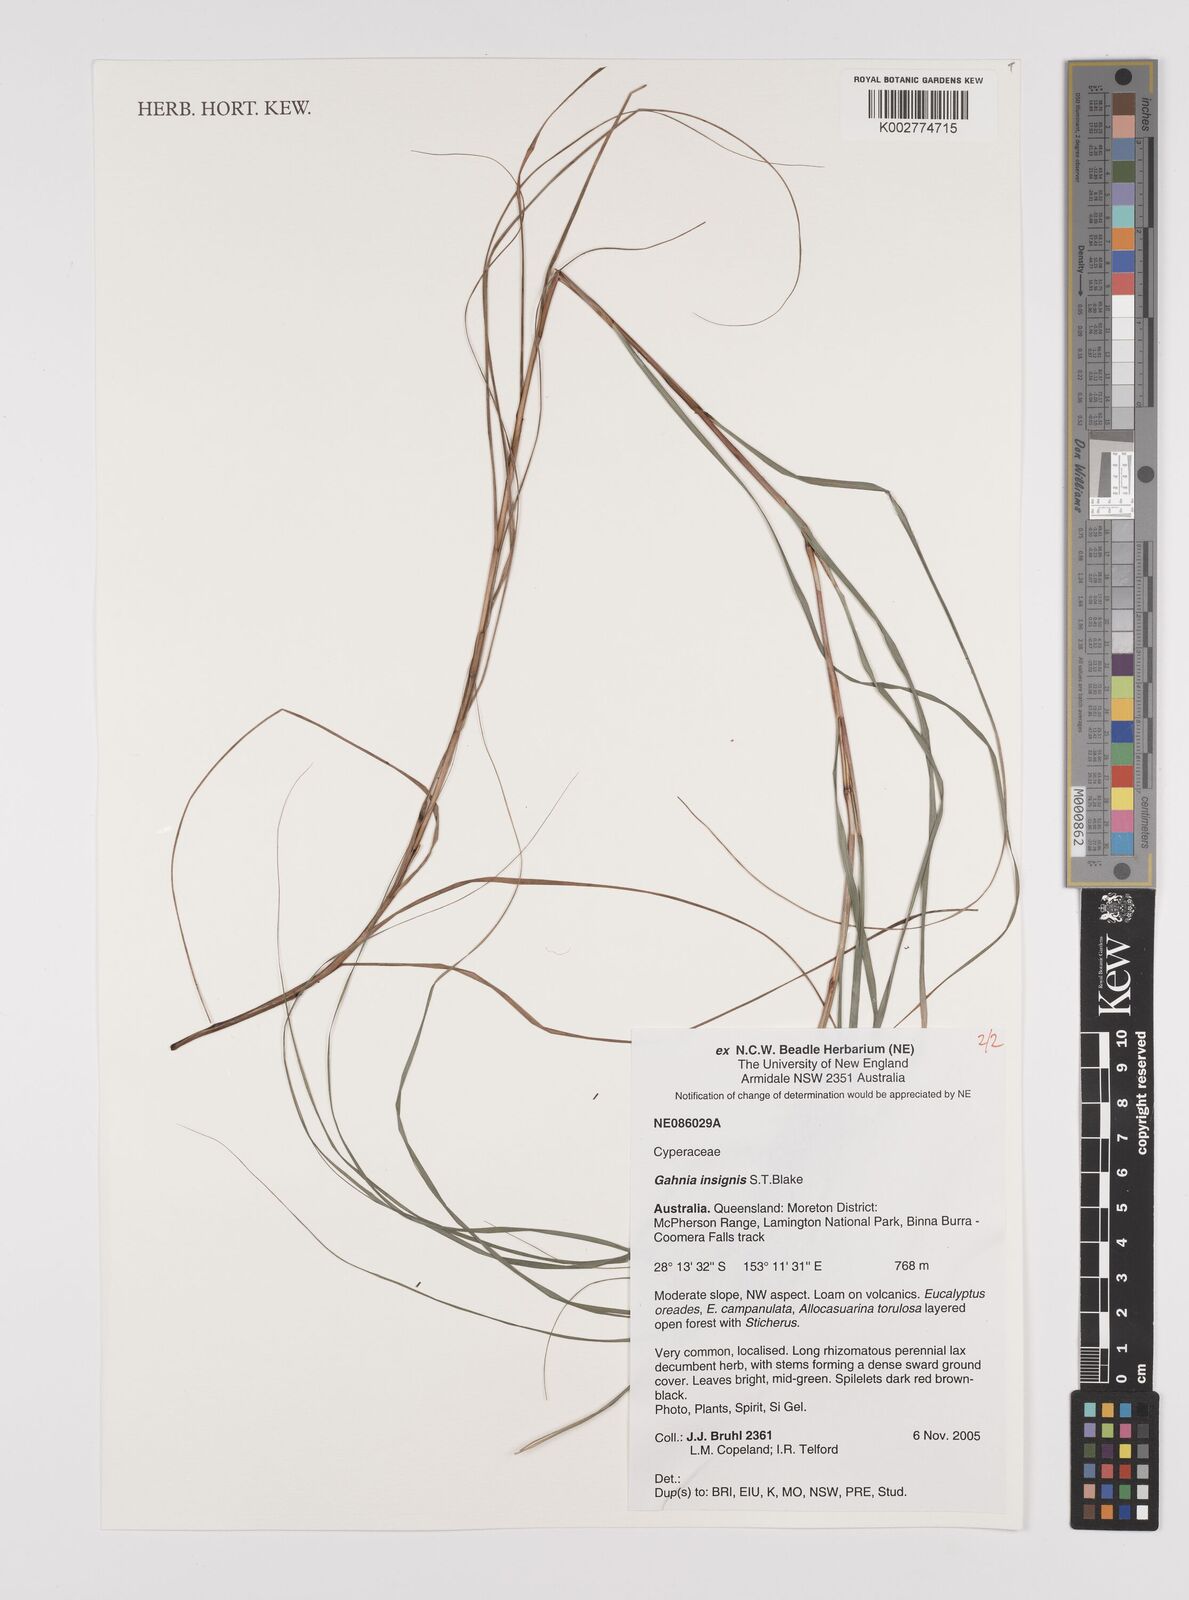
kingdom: Plantae
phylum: Tracheophyta
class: Liliopsida
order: Poales
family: Cyperaceae
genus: Gahnia
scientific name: Gahnia insignis
